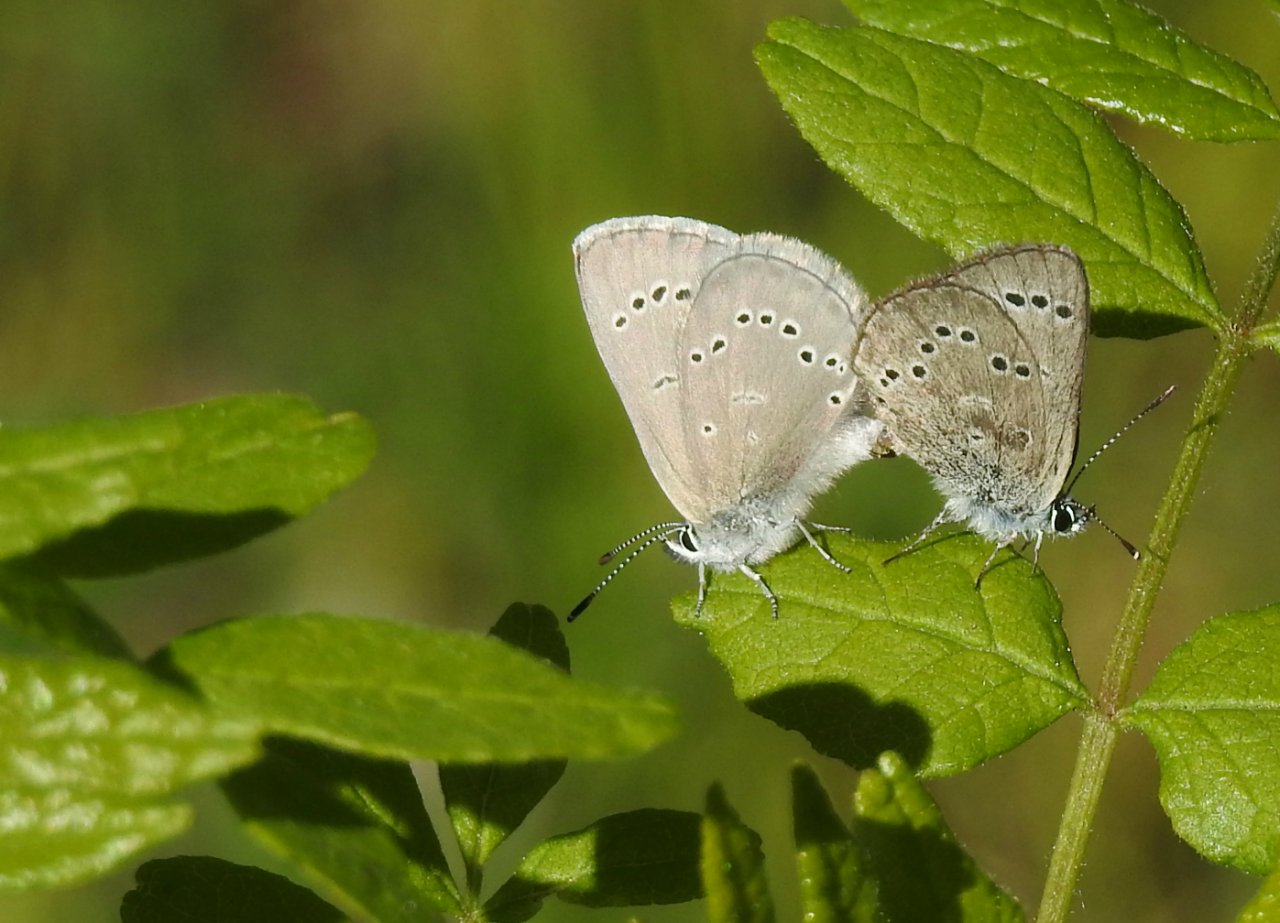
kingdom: Animalia
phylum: Arthropoda
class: Insecta
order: Lepidoptera
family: Lycaenidae
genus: Glaucopsyche
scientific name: Glaucopsyche lygdamus
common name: Silvery Blue
